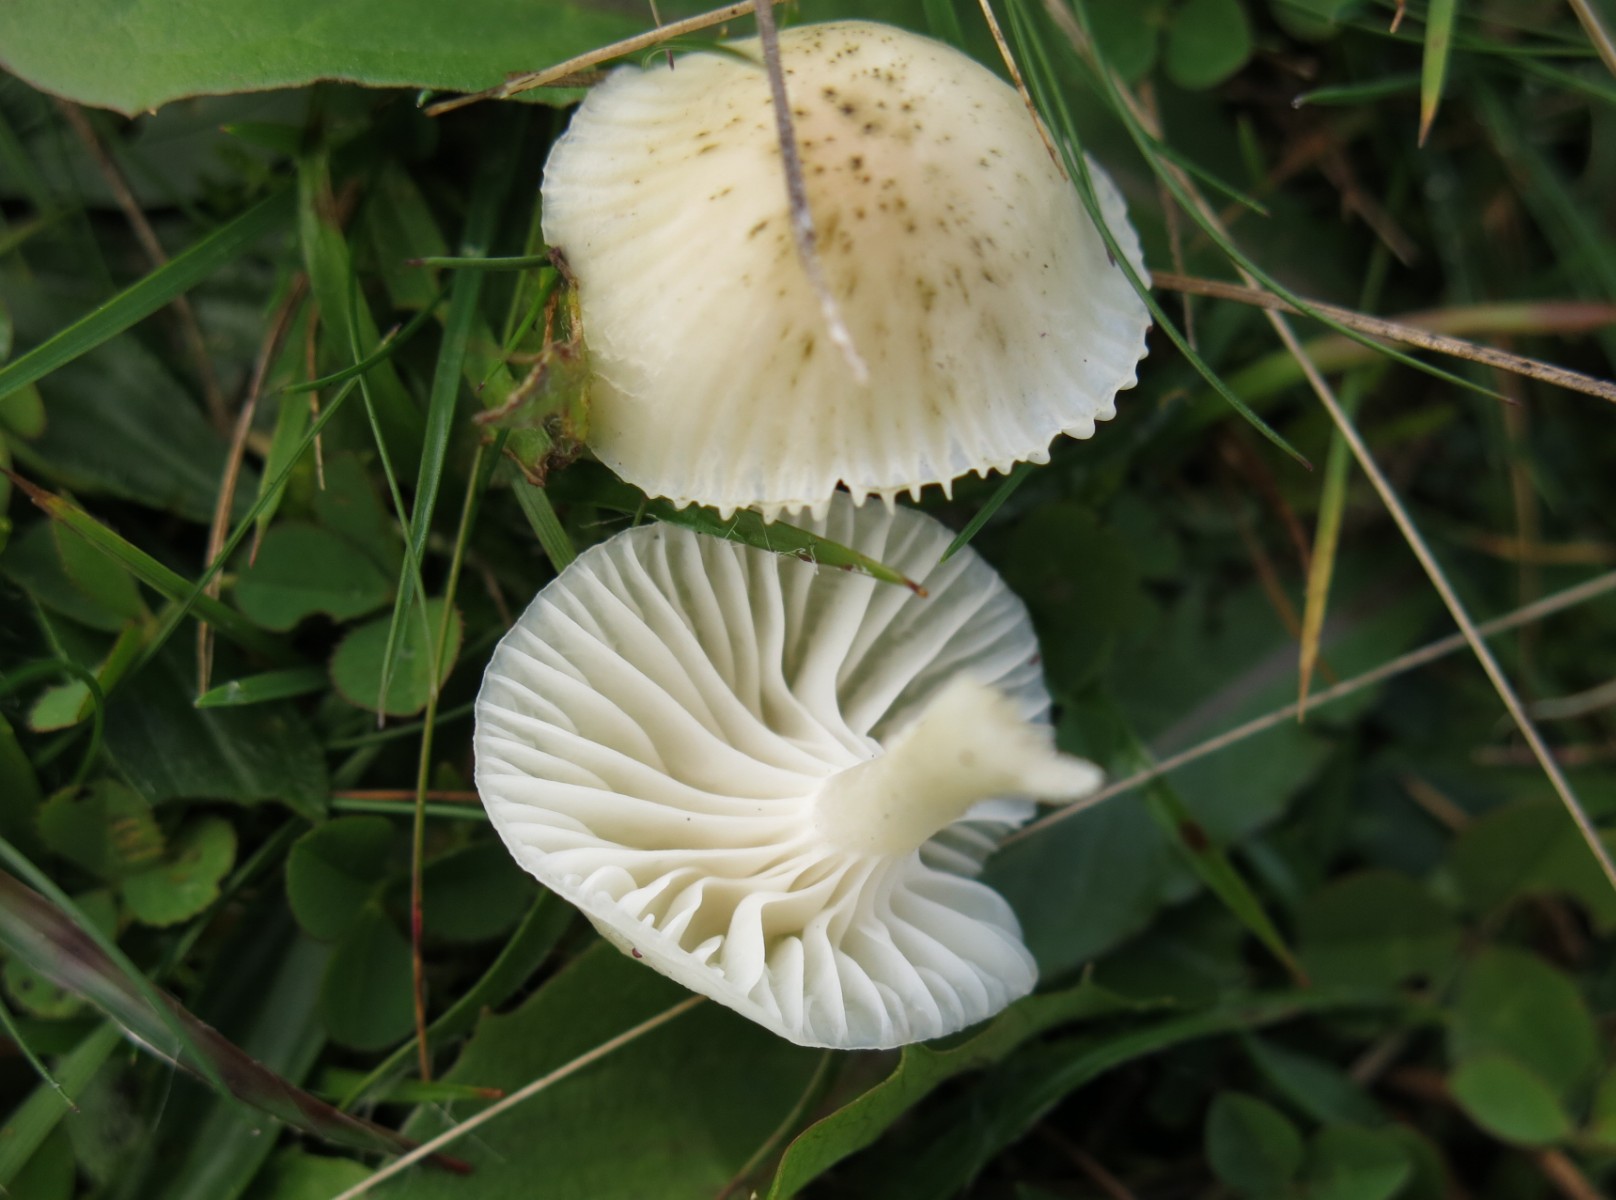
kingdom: Fungi
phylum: Basidiomycota
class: Agaricomycetes
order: Agaricales
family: Hygrophoraceae
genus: Cuphophyllus
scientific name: Cuphophyllus virgineus
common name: snehvid vokshat
